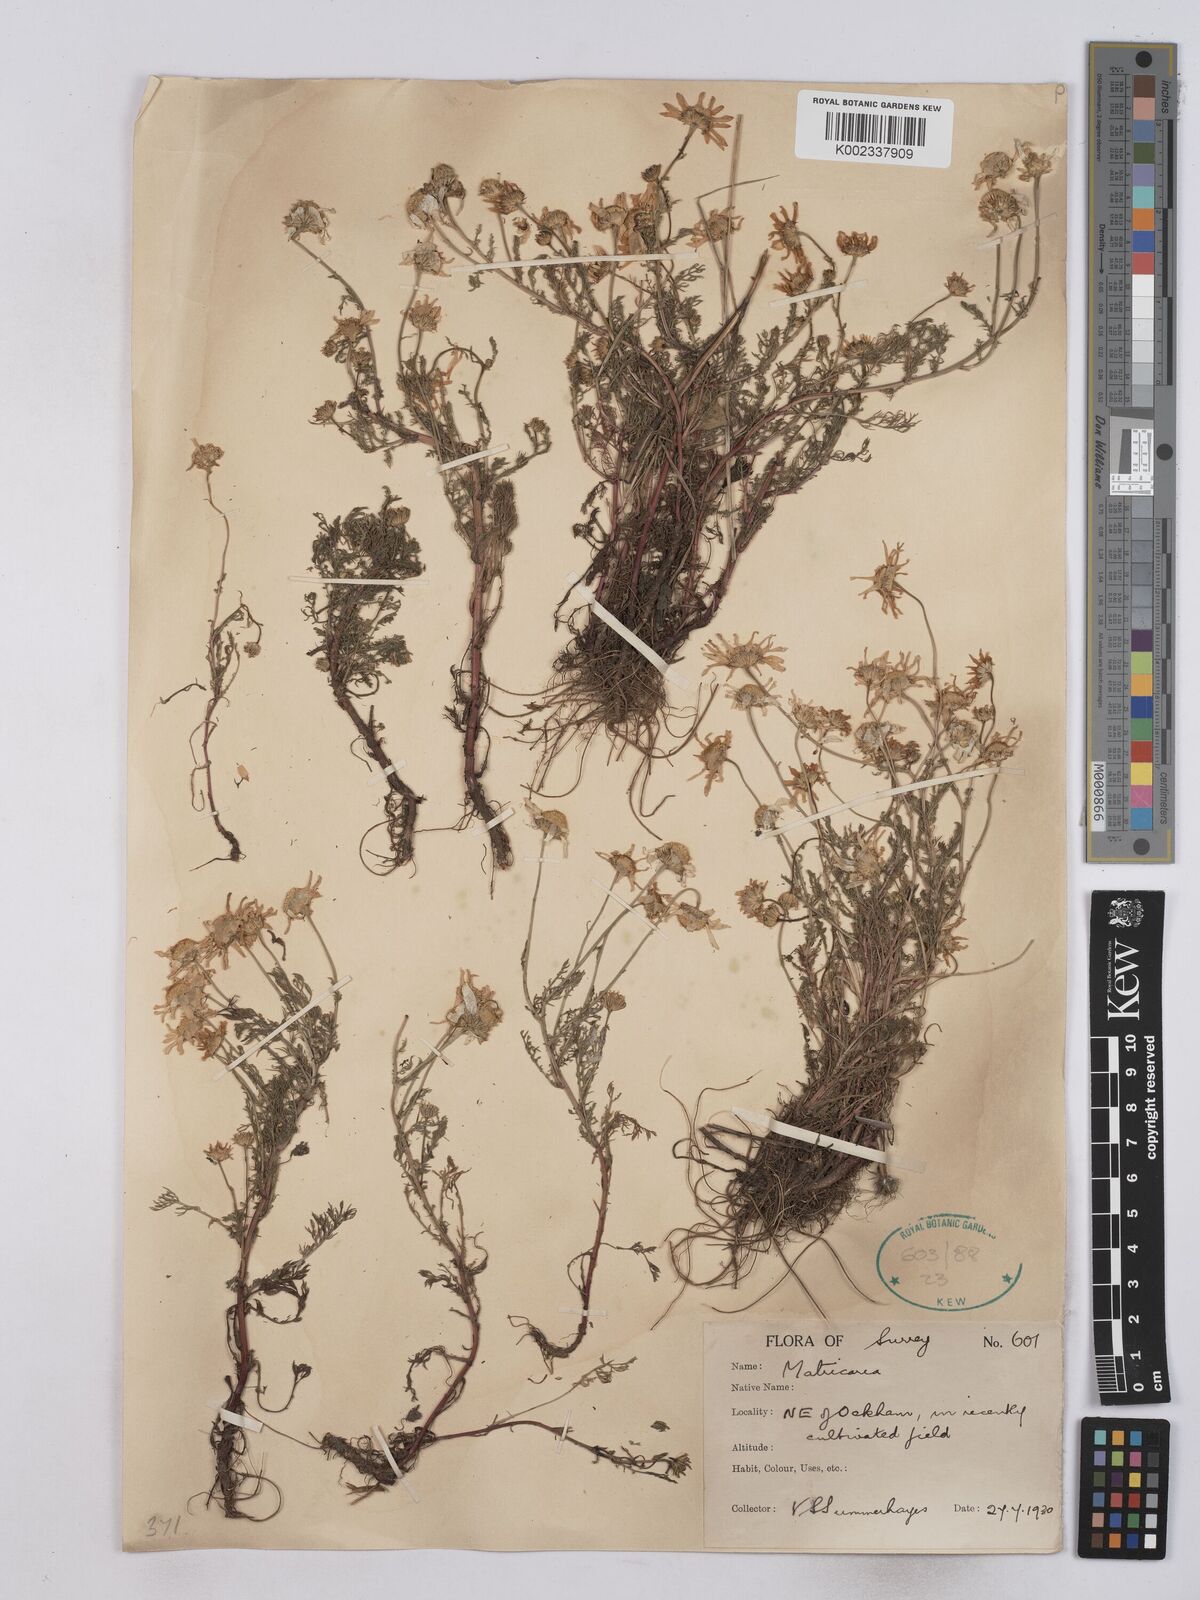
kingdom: Plantae
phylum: Tracheophyta
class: Magnoliopsida
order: Asterales
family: Asteraceae
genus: Matricaria
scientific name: Matricaria discoidea
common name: Disc mayweed
